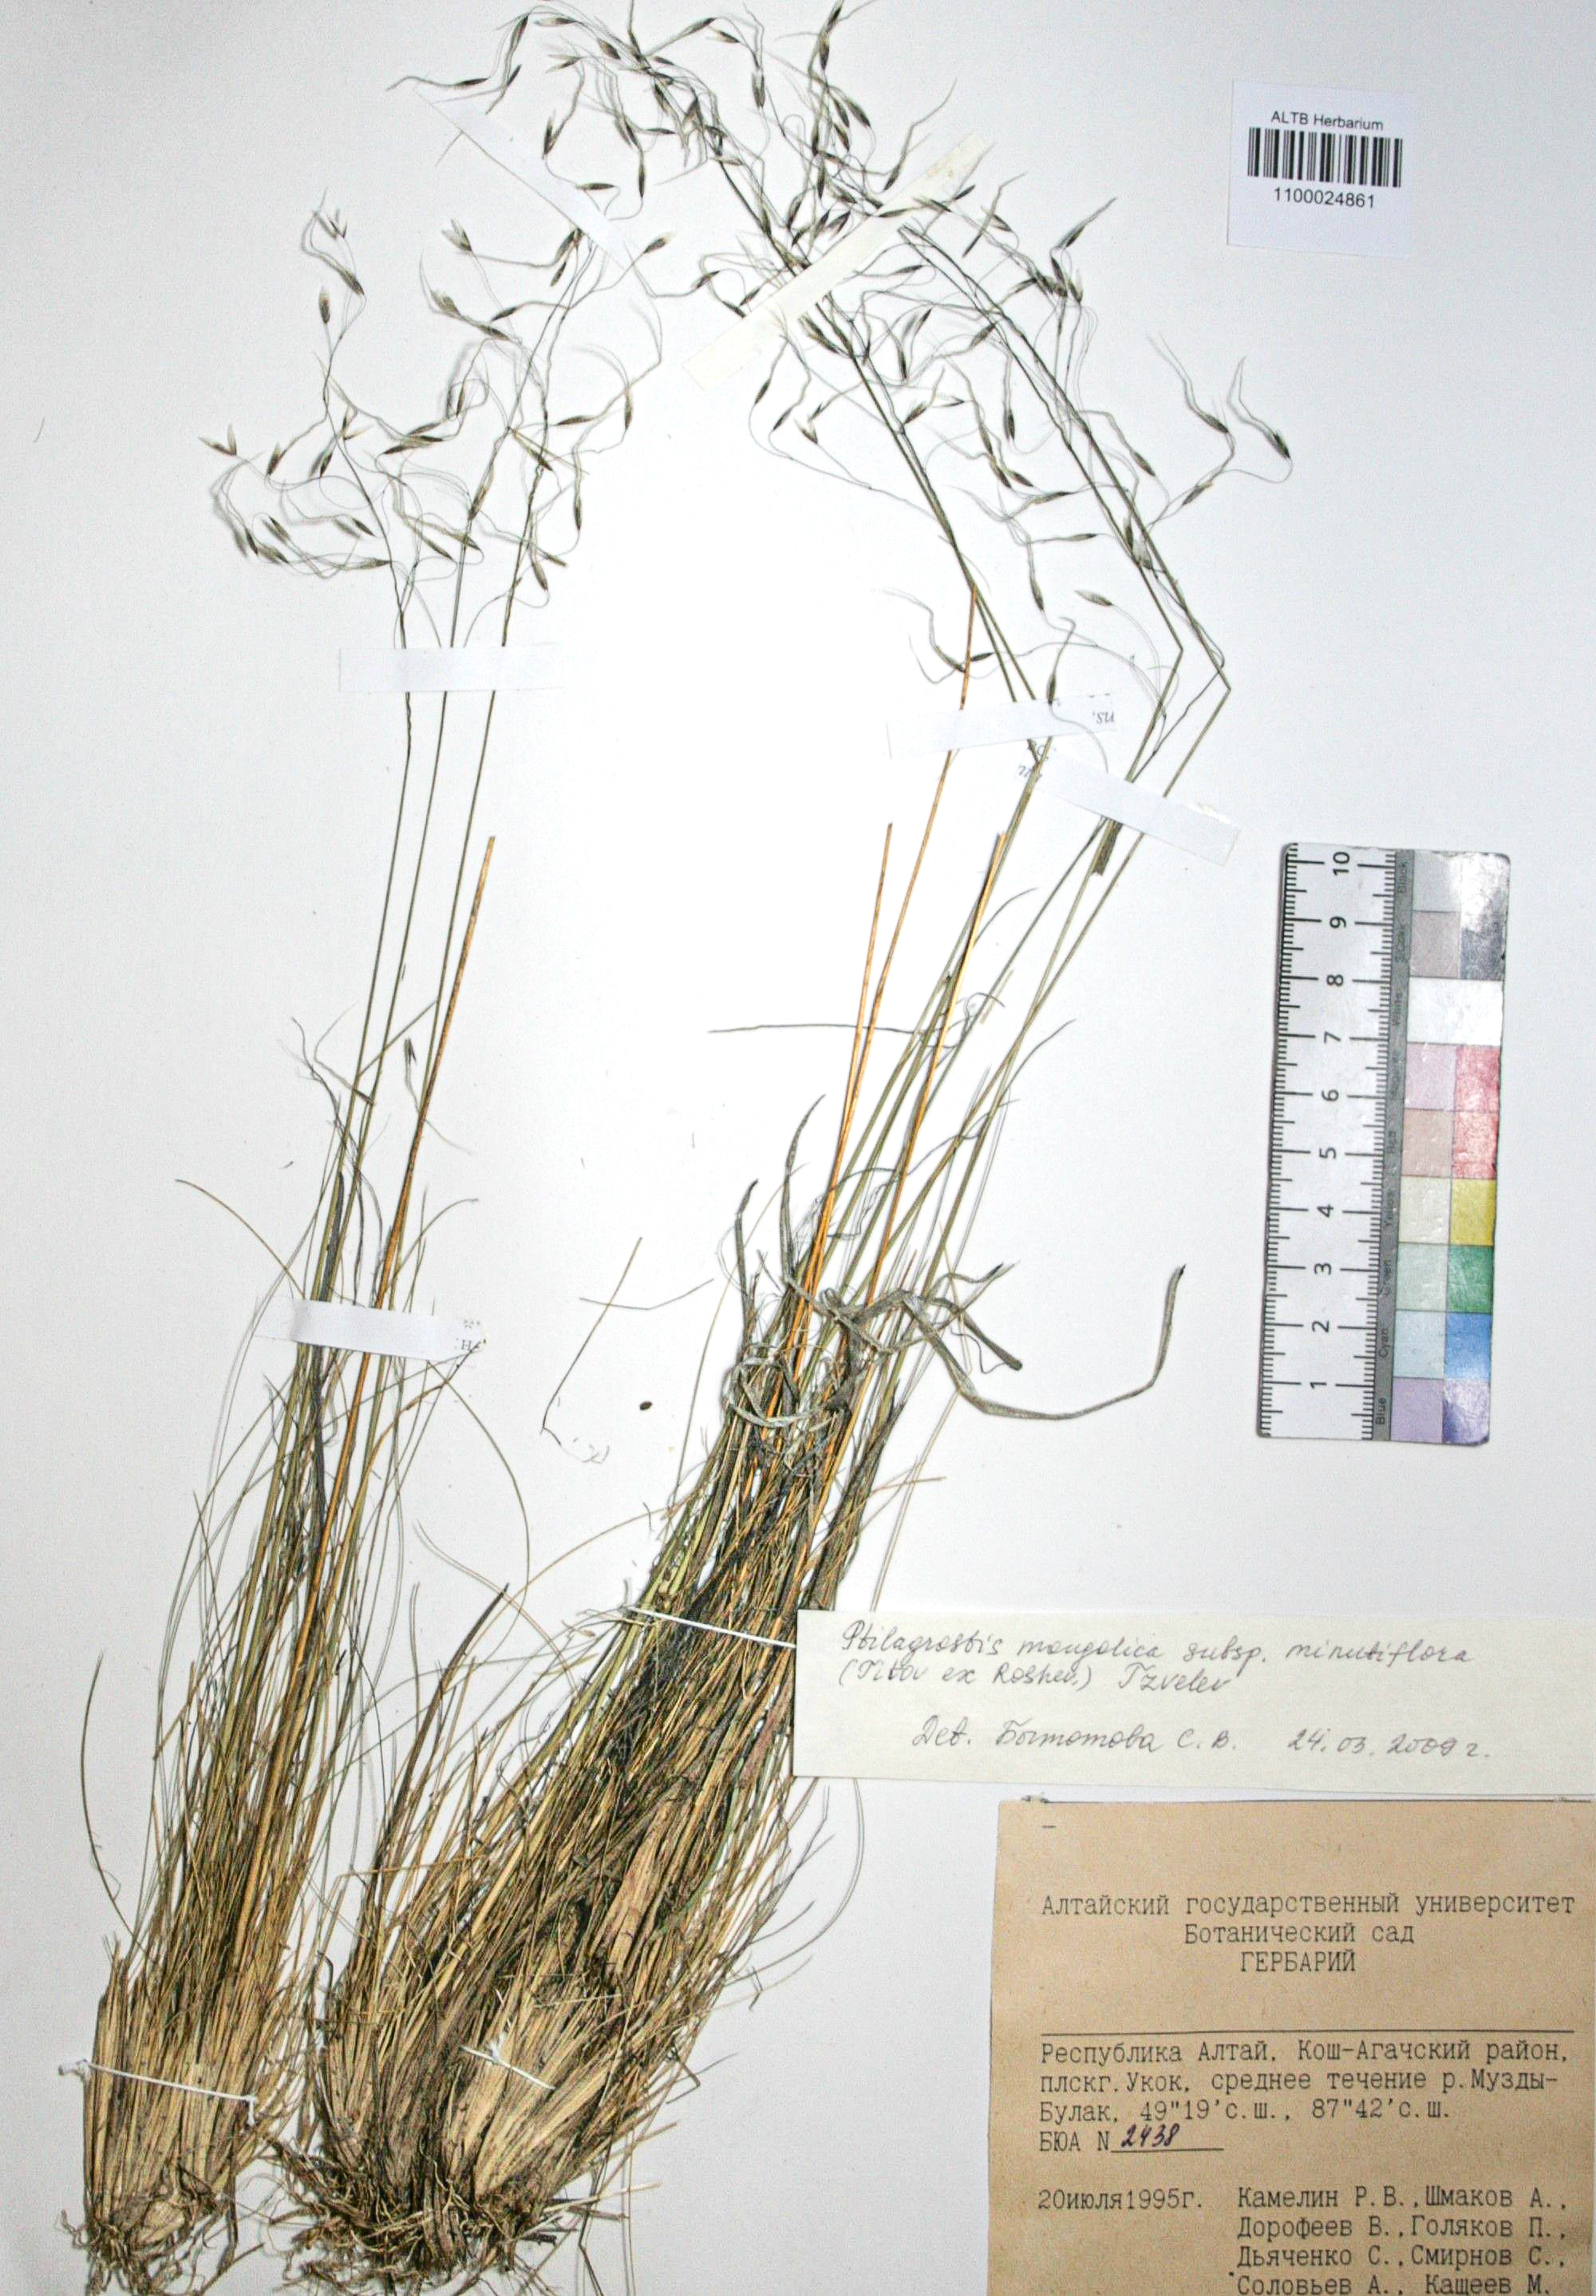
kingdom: Plantae
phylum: Tracheophyta
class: Liliopsida
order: Poales
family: Poaceae
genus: Ptilagrostis
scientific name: Ptilagrostis mongholica
